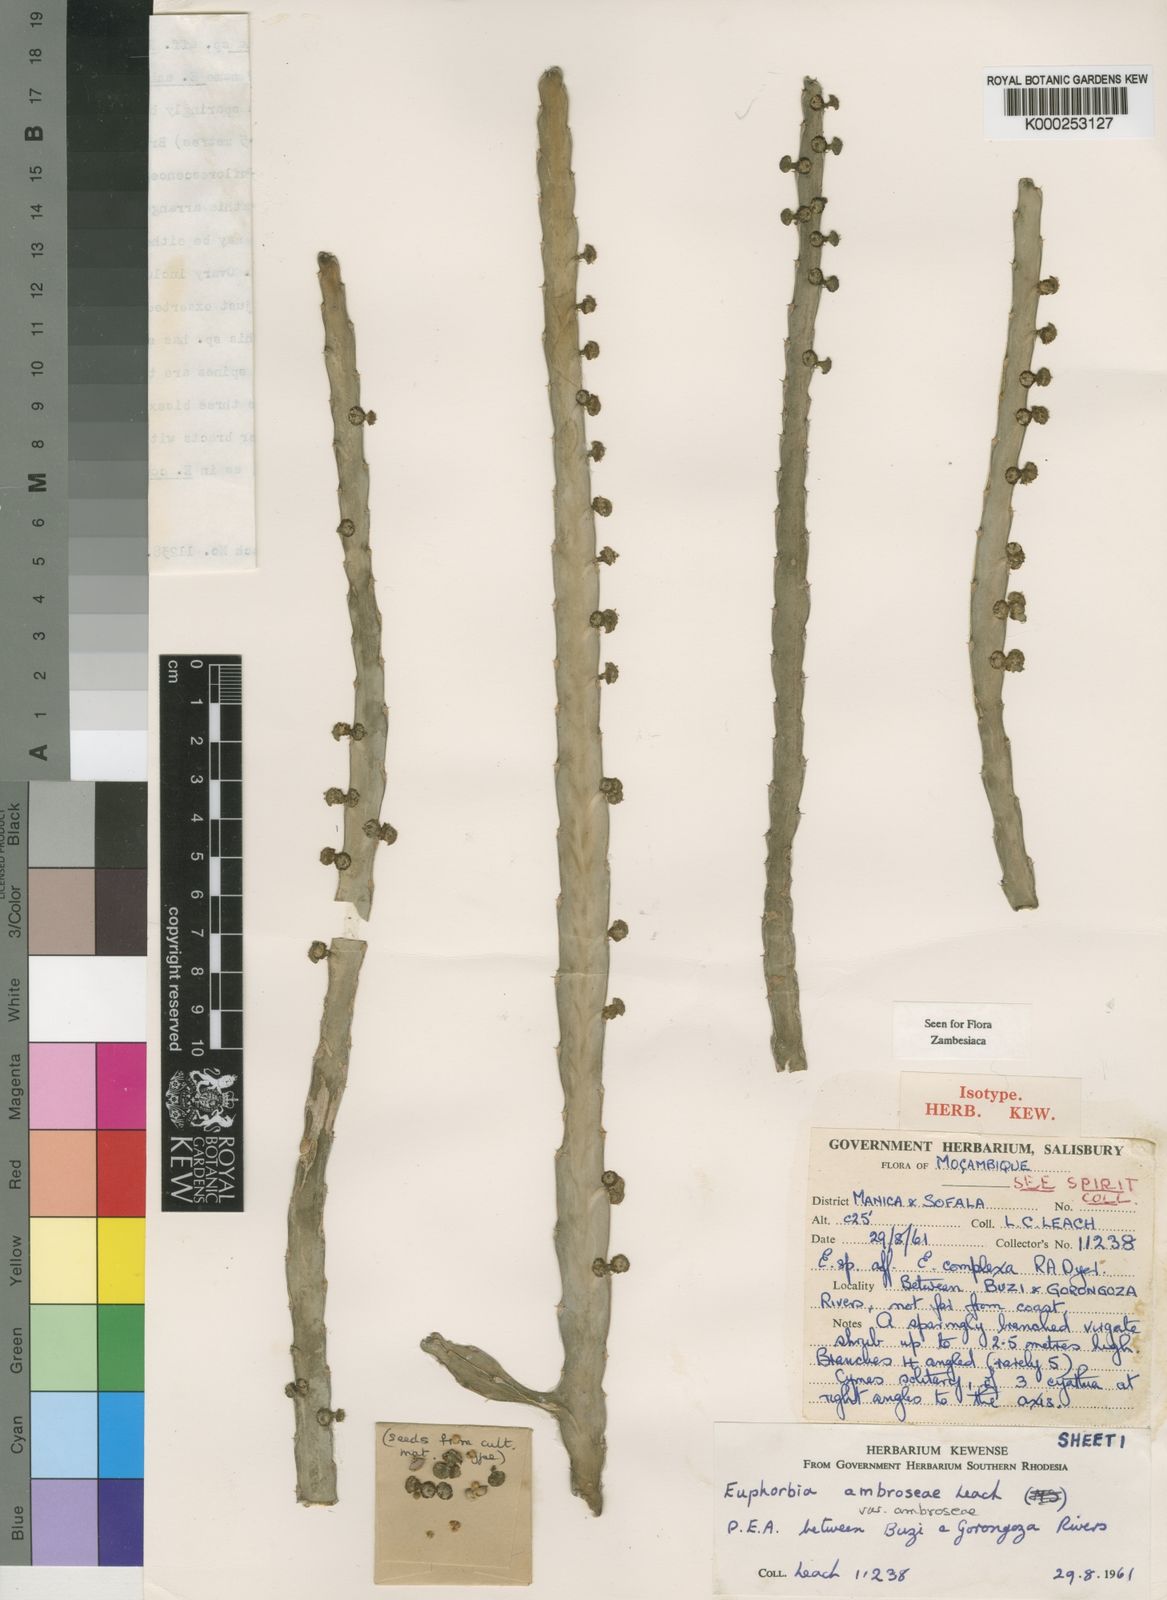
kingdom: Plantae
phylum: Tracheophyta
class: Magnoliopsida
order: Malpighiales
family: Euphorbiaceae
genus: Euphorbia
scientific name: Euphorbia ambroseae
